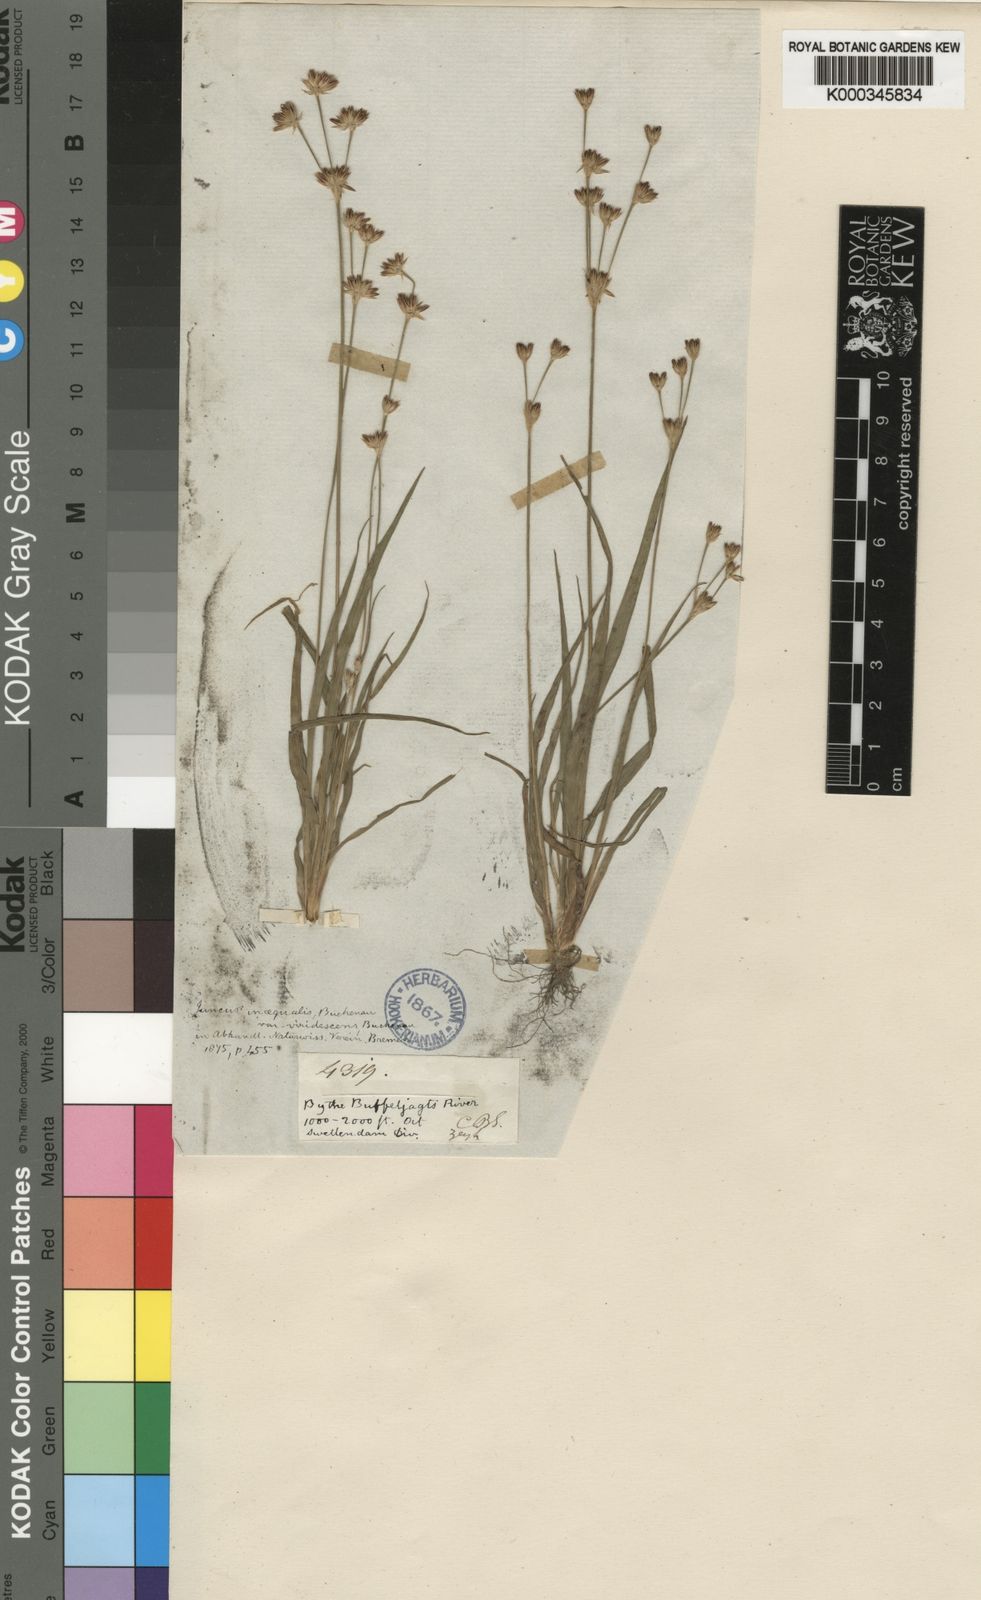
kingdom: Plantae
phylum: Tracheophyta
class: Liliopsida
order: Poales
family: Juncaceae
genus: Juncus
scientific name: Juncus cephalotes
